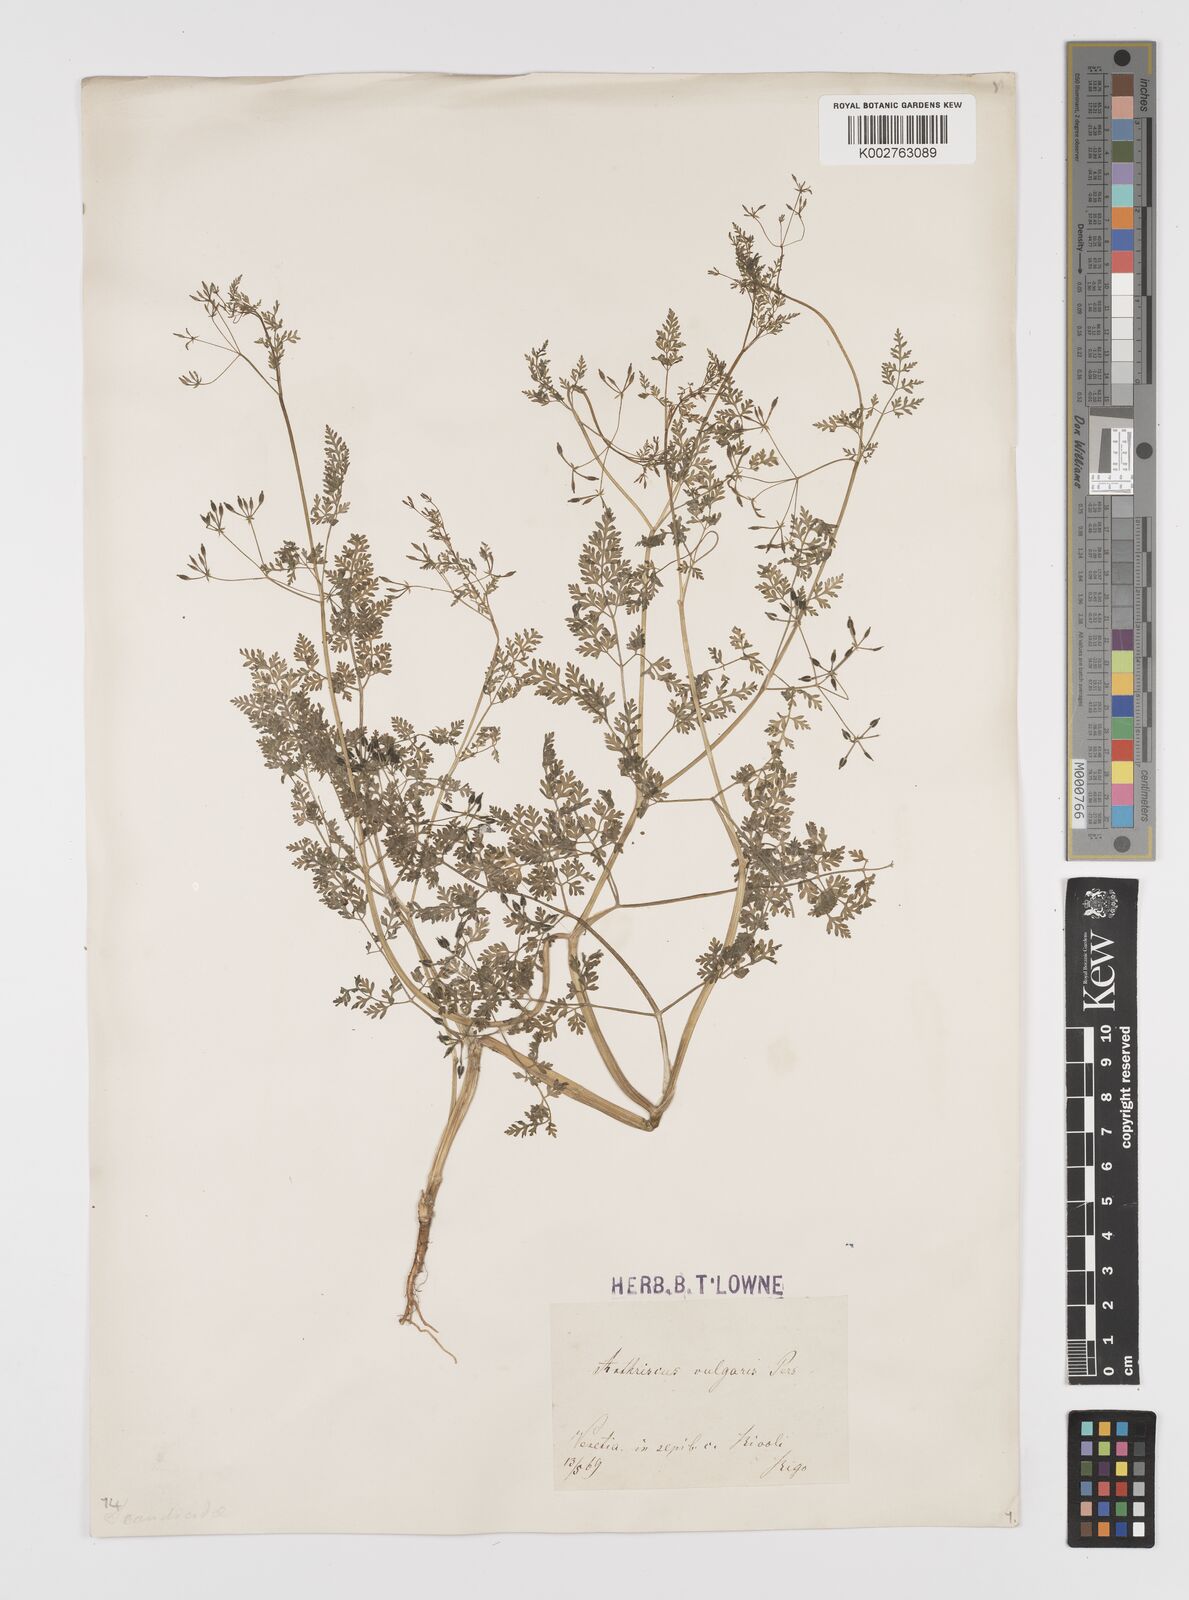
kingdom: Plantae
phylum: Tracheophyta
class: Magnoliopsida
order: Apiales
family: Apiaceae
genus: Anthriscus
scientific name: Anthriscus caucalis
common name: Bur chervil
